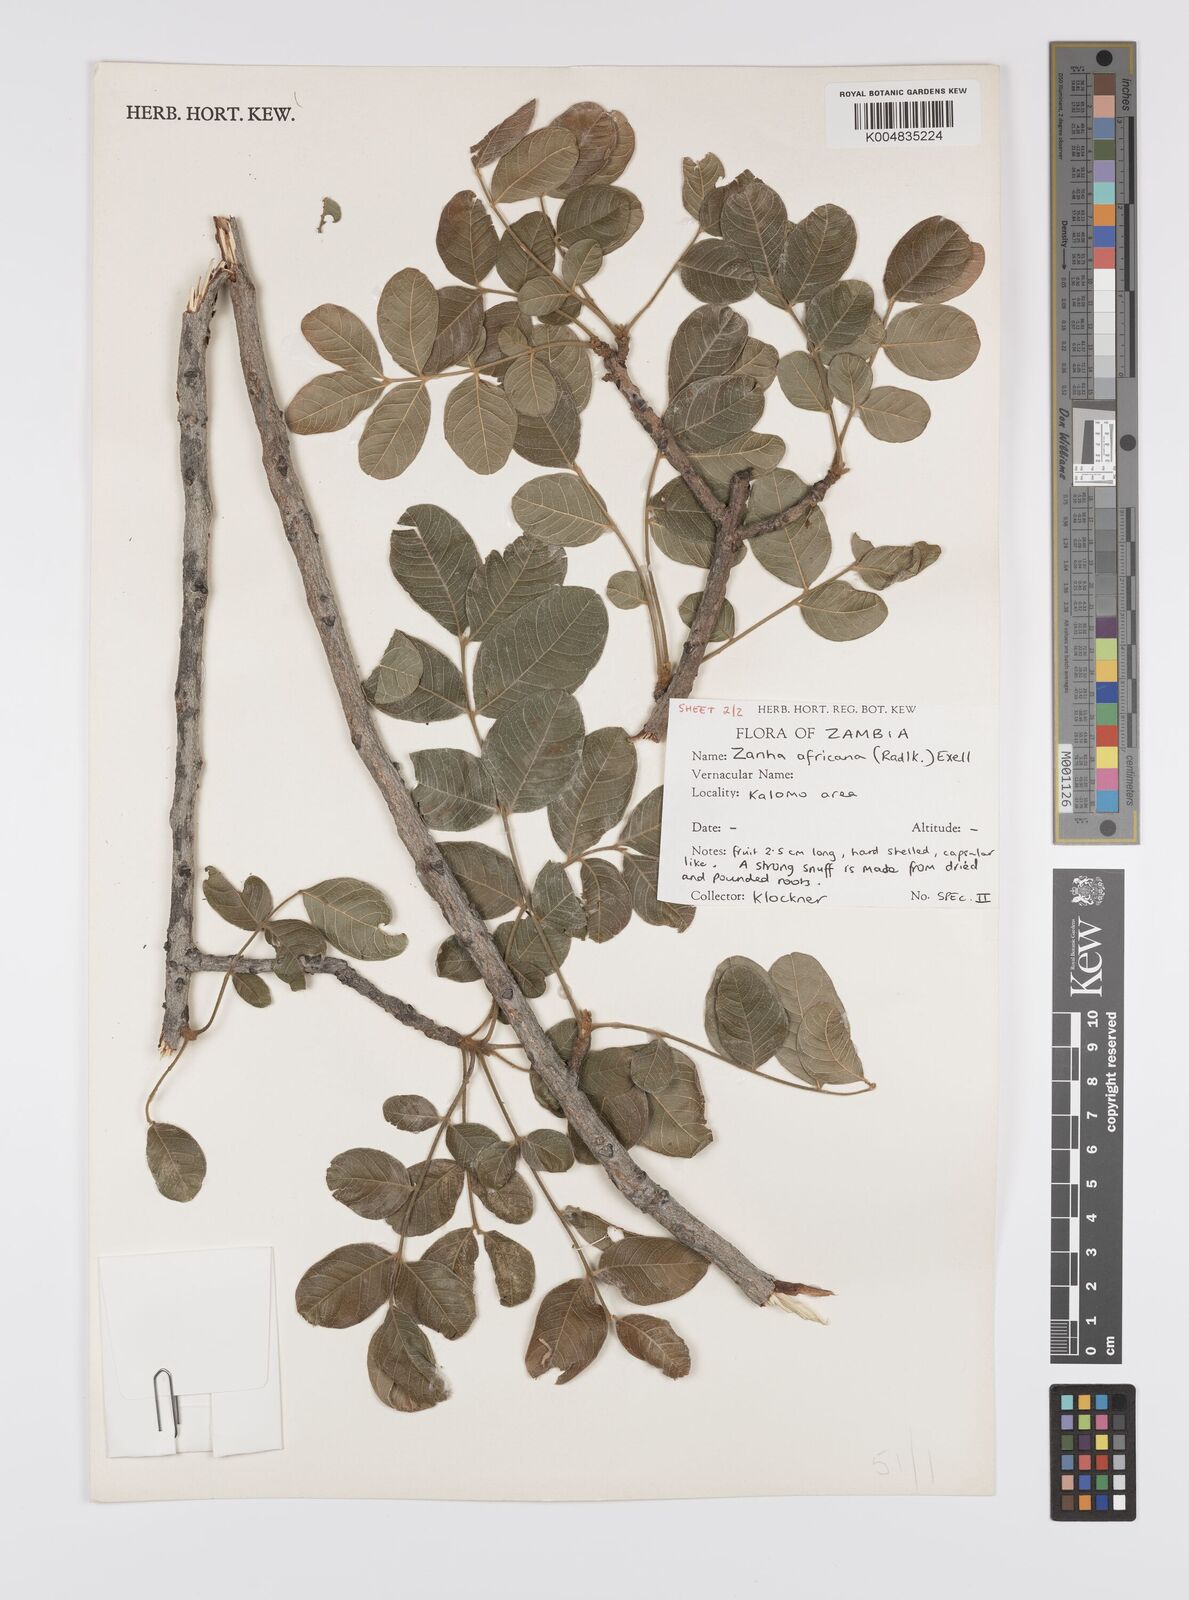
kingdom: Plantae
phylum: Tracheophyta
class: Magnoliopsida
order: Sapindales
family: Sapindaceae
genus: Zanha
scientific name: Zanha africana
